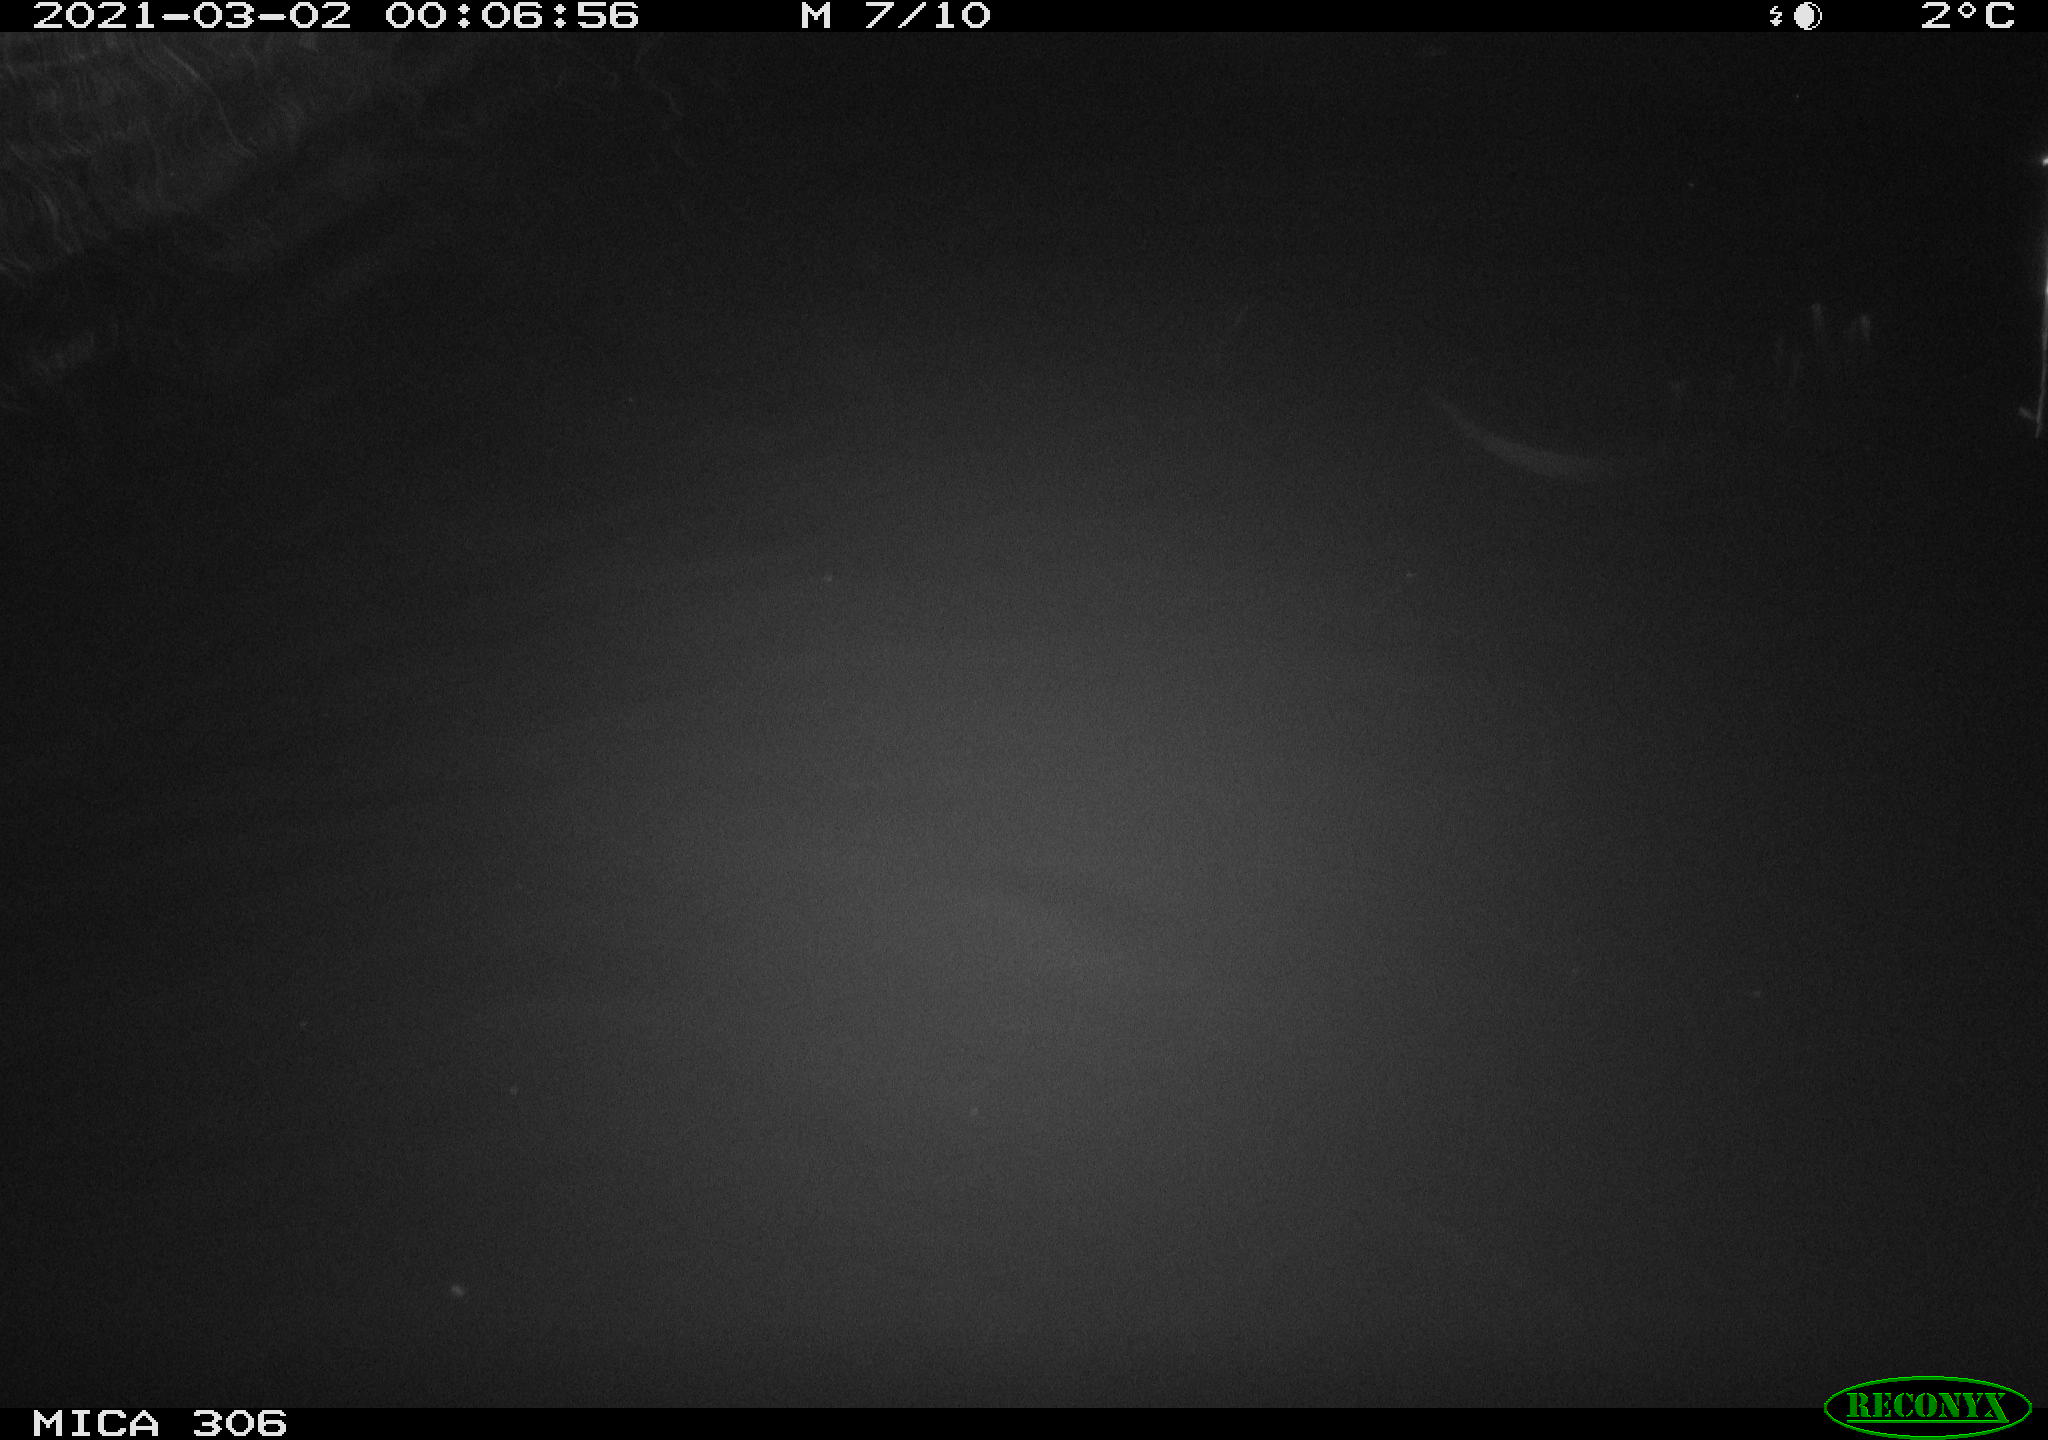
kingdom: Animalia
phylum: Chordata
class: Mammalia
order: Rodentia
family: Cricetidae
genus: Ondatra
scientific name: Ondatra zibethicus
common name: Muskrat
